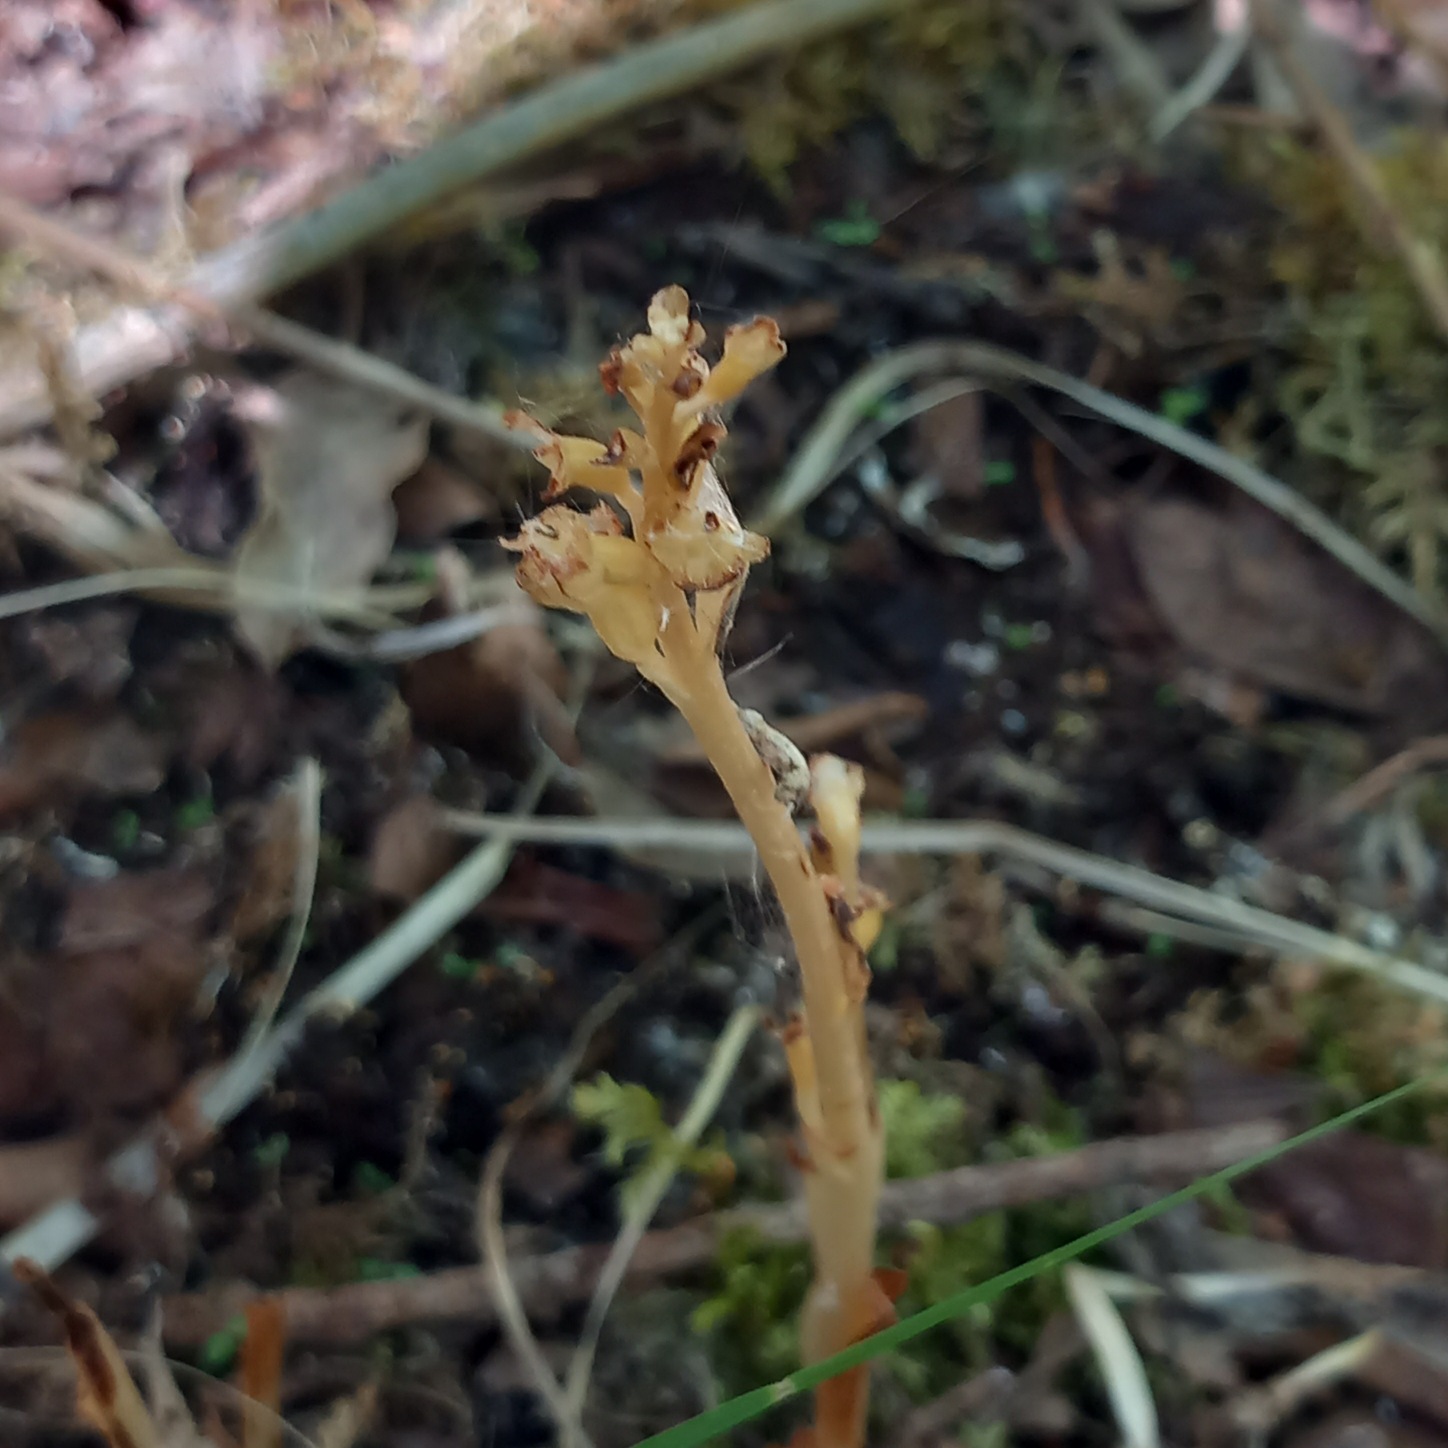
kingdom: Plantae
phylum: Tracheophyta
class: Liliopsida
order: Asparagales
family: Orchidaceae
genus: Neottia
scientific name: Neottia nidus-avis
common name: Rederod
